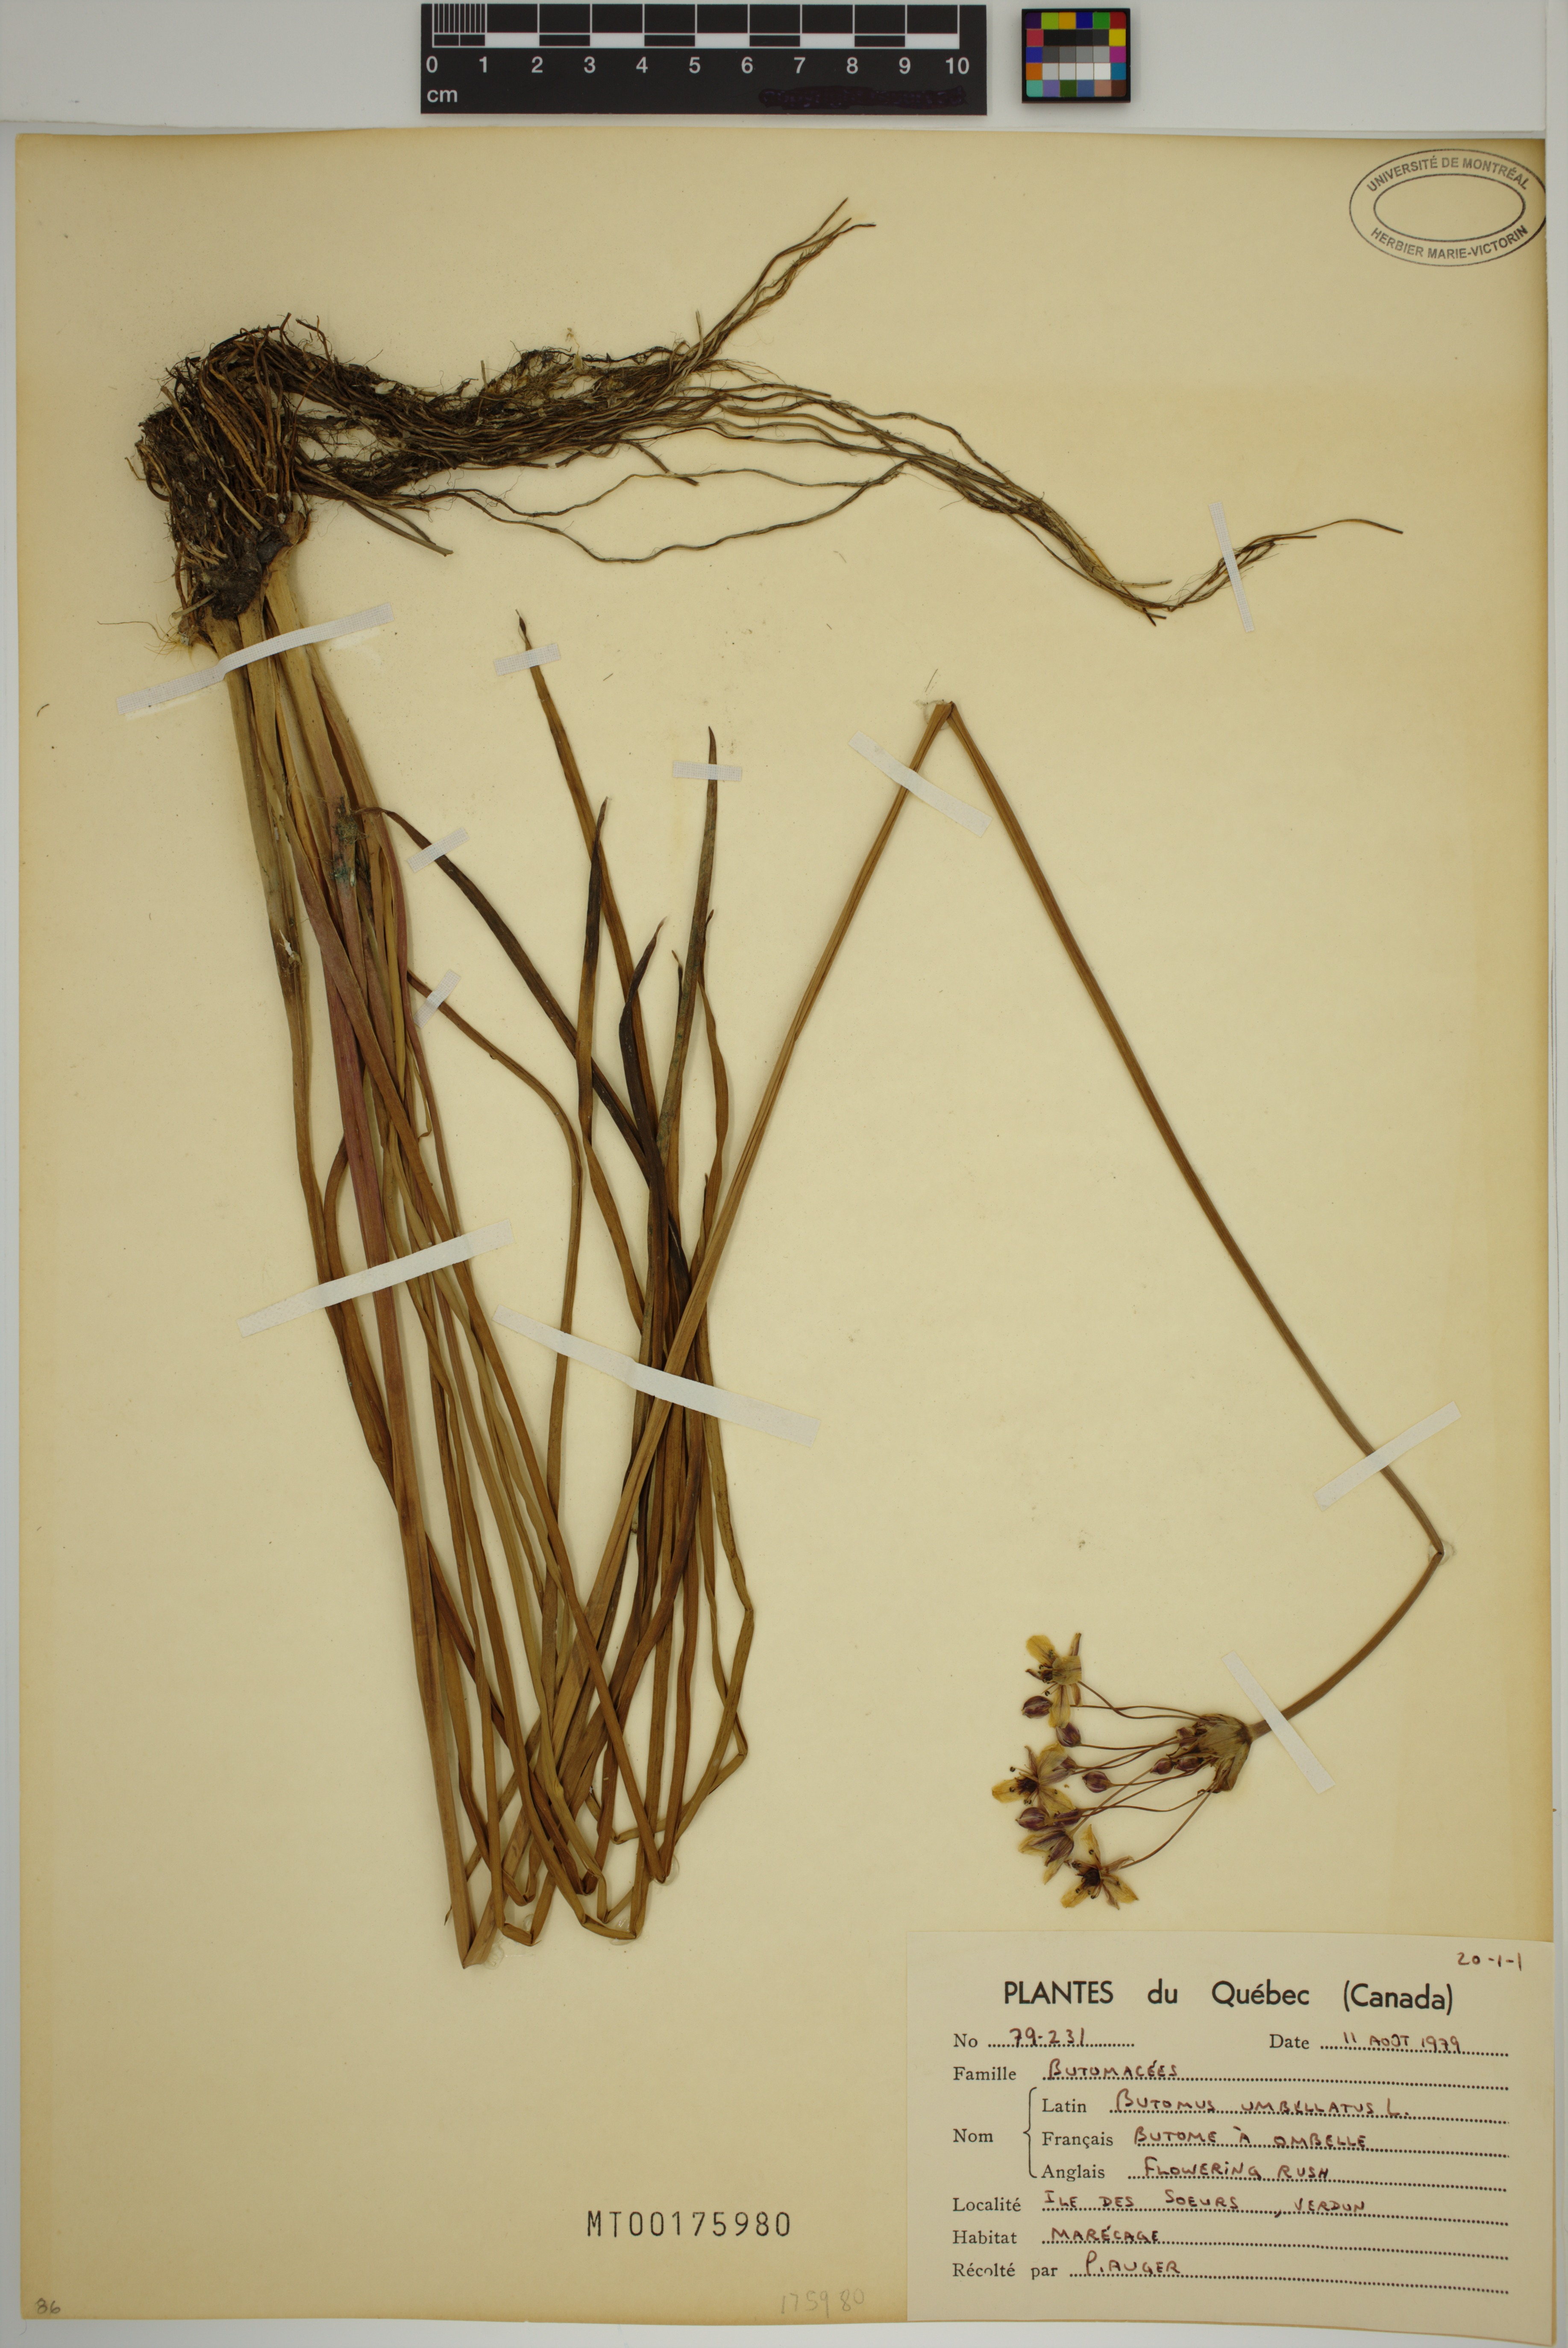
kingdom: Plantae
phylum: Tracheophyta
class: Liliopsida
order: Alismatales
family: Butomaceae
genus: Butomus
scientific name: Butomus umbellatus
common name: Flowering-rush
